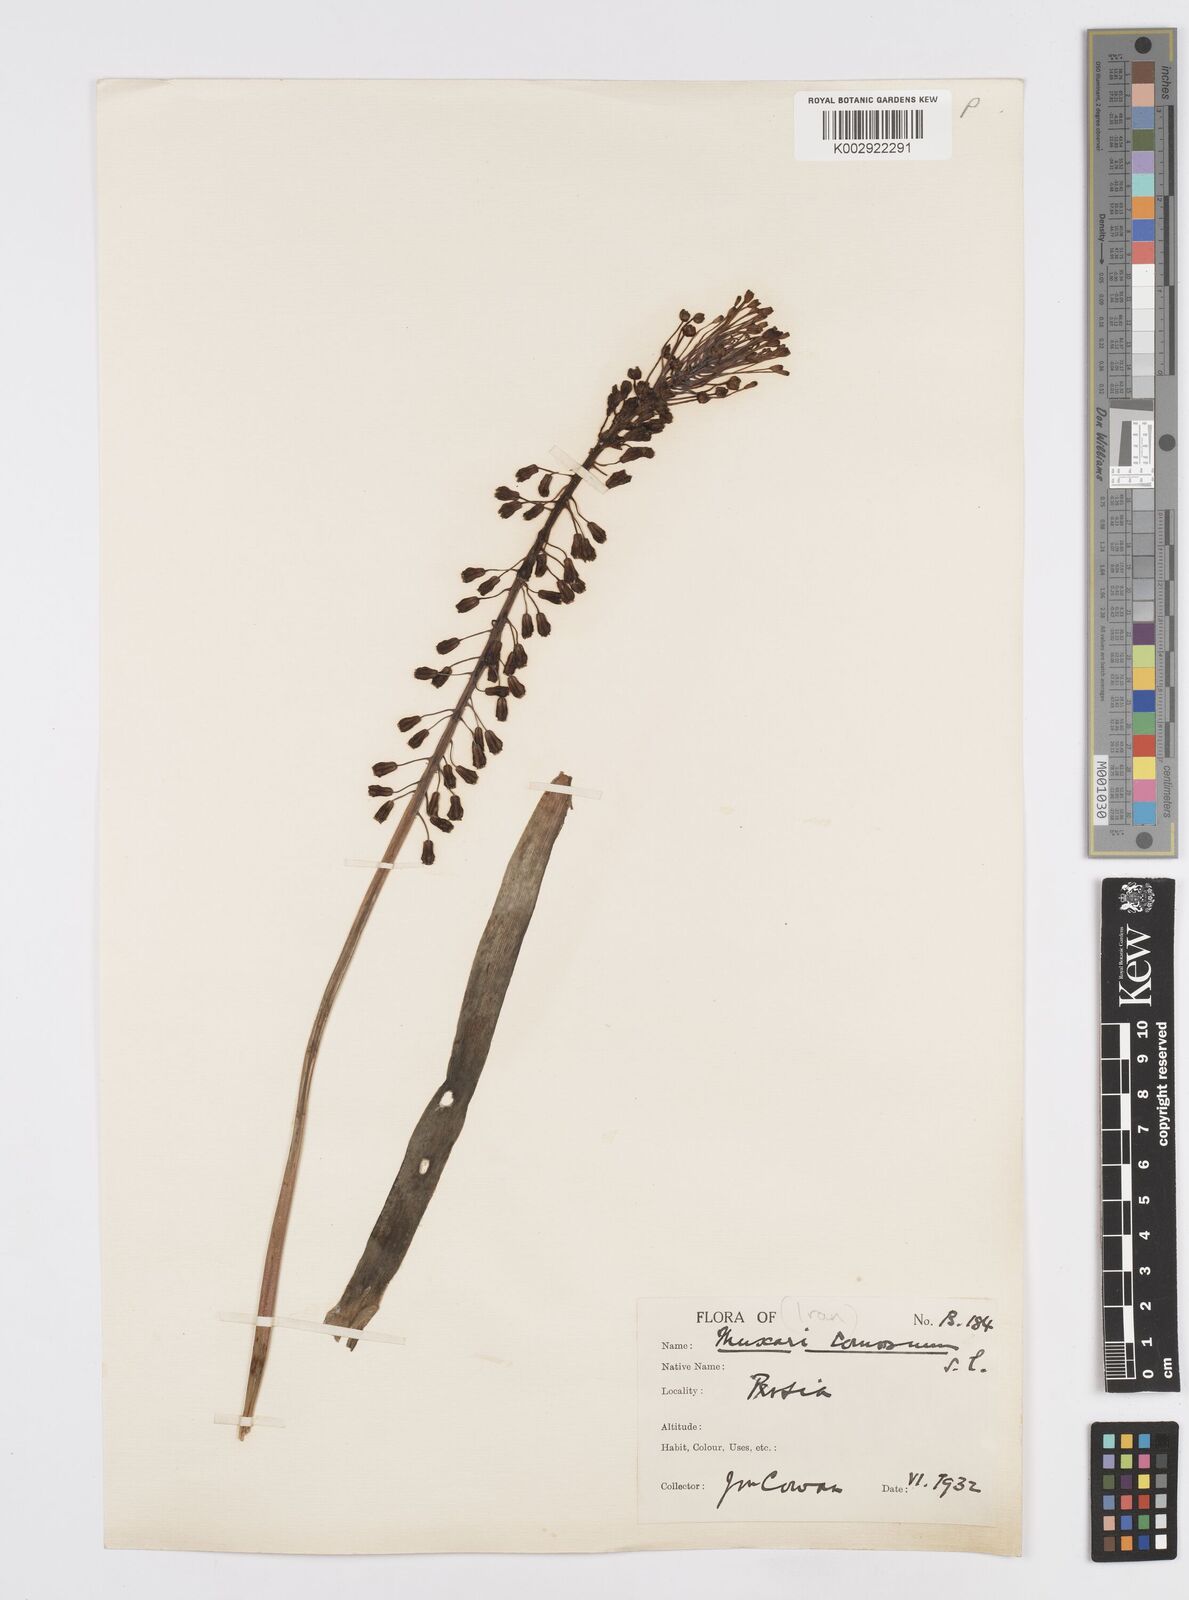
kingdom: Plantae
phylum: Tracheophyta
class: Liliopsida
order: Asparagales
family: Asparagaceae
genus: Muscari
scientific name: Muscari comosum
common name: Tassel hyacinth
